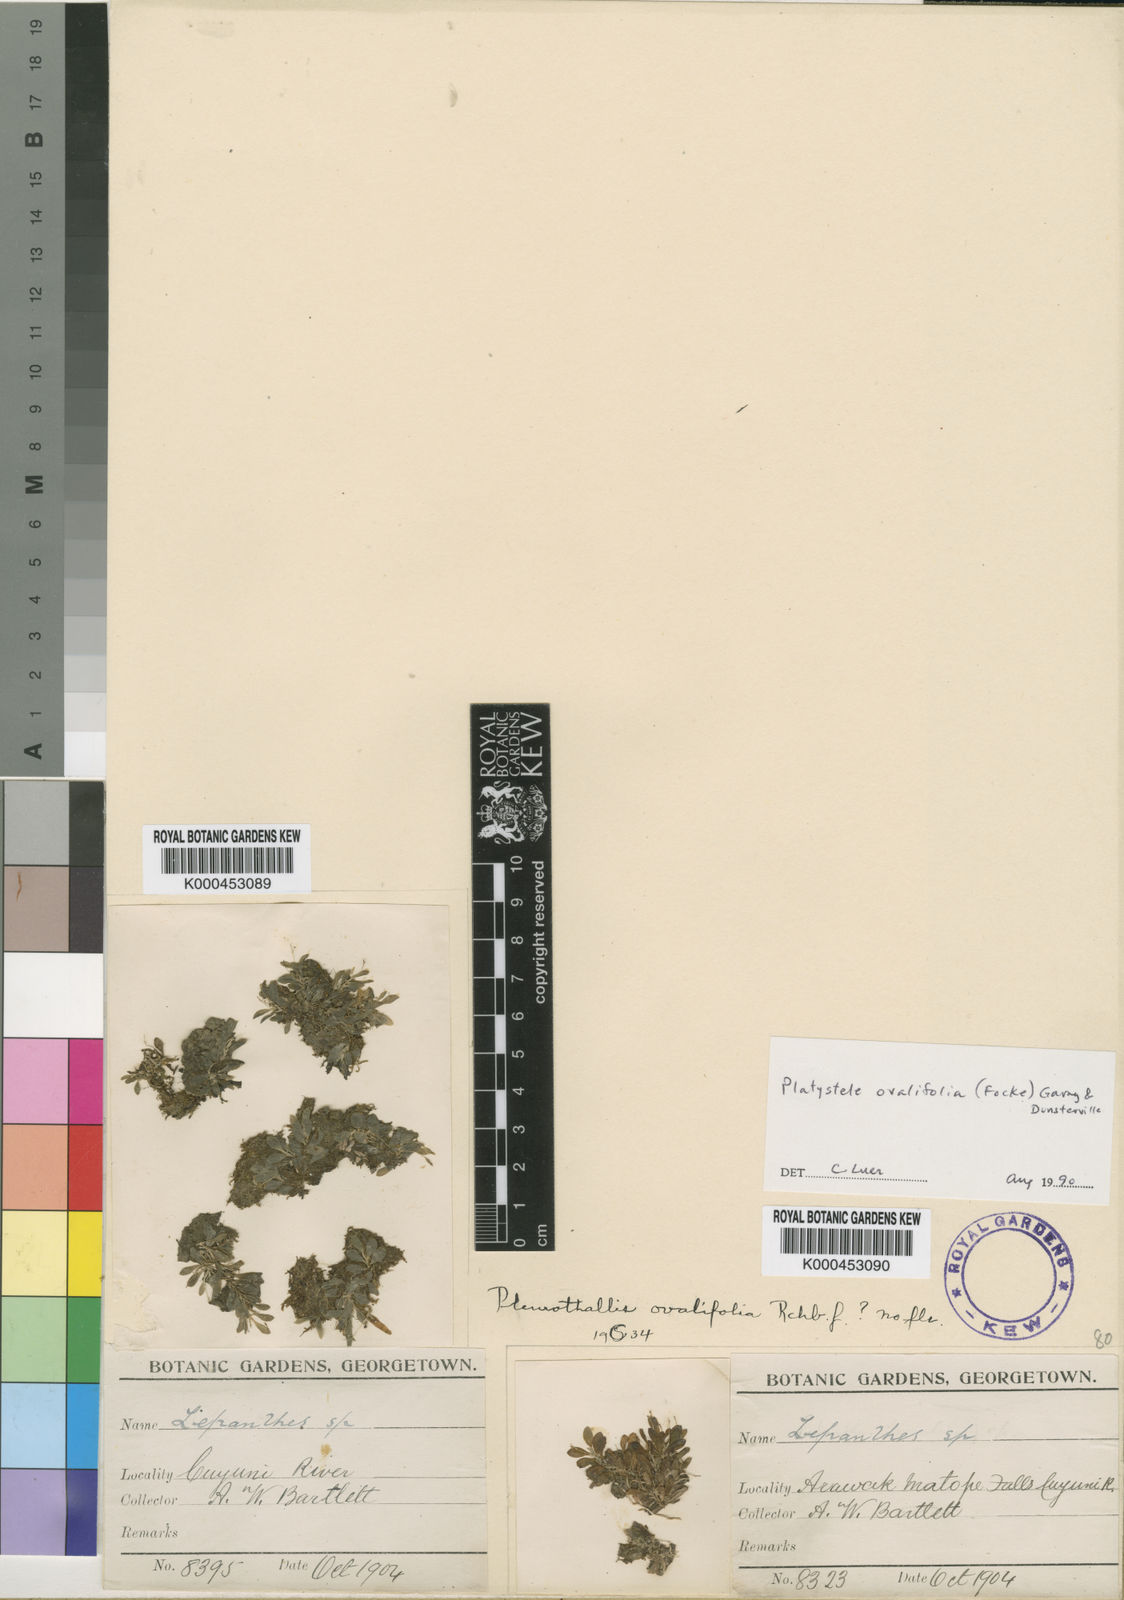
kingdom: Plantae
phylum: Tracheophyta
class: Liliopsida
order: Asparagales
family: Orchidaceae
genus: Platystele
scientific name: Platystele ovalifolia
